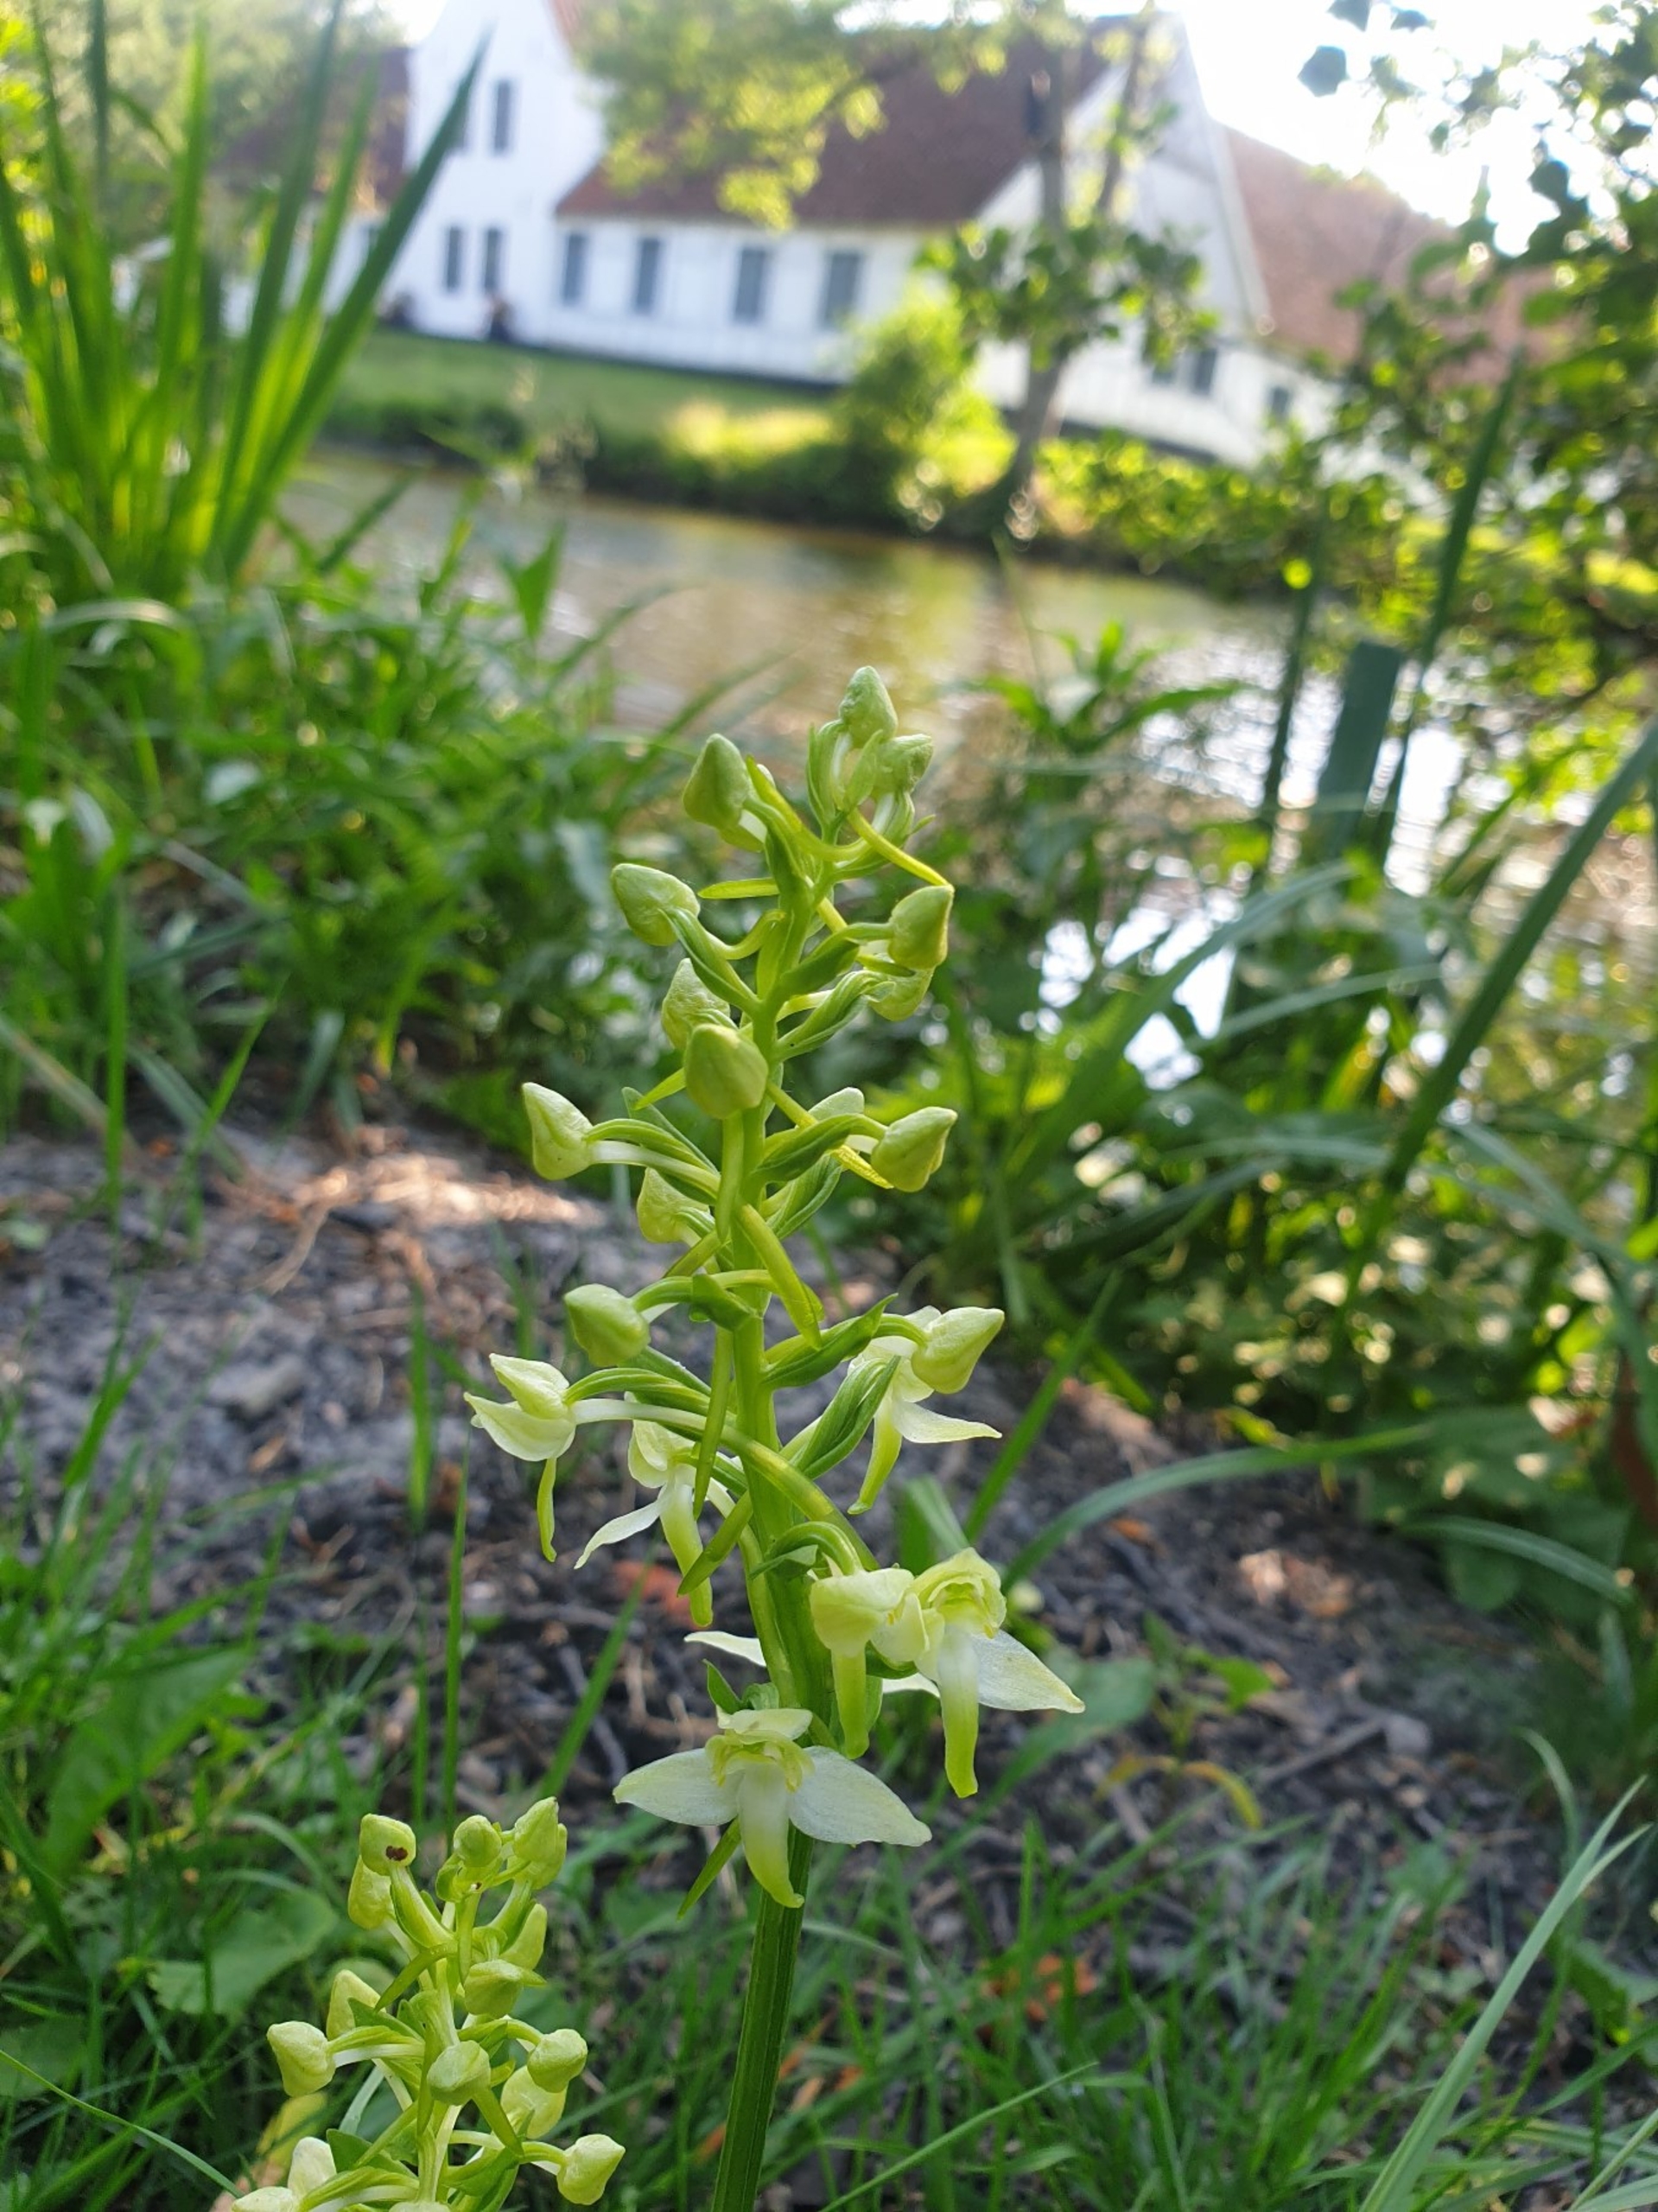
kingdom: Plantae
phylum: Tracheophyta
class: Liliopsida
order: Asparagales
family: Orchidaceae
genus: Platanthera
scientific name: Platanthera chlorantha
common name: Skov-gøgelilje
